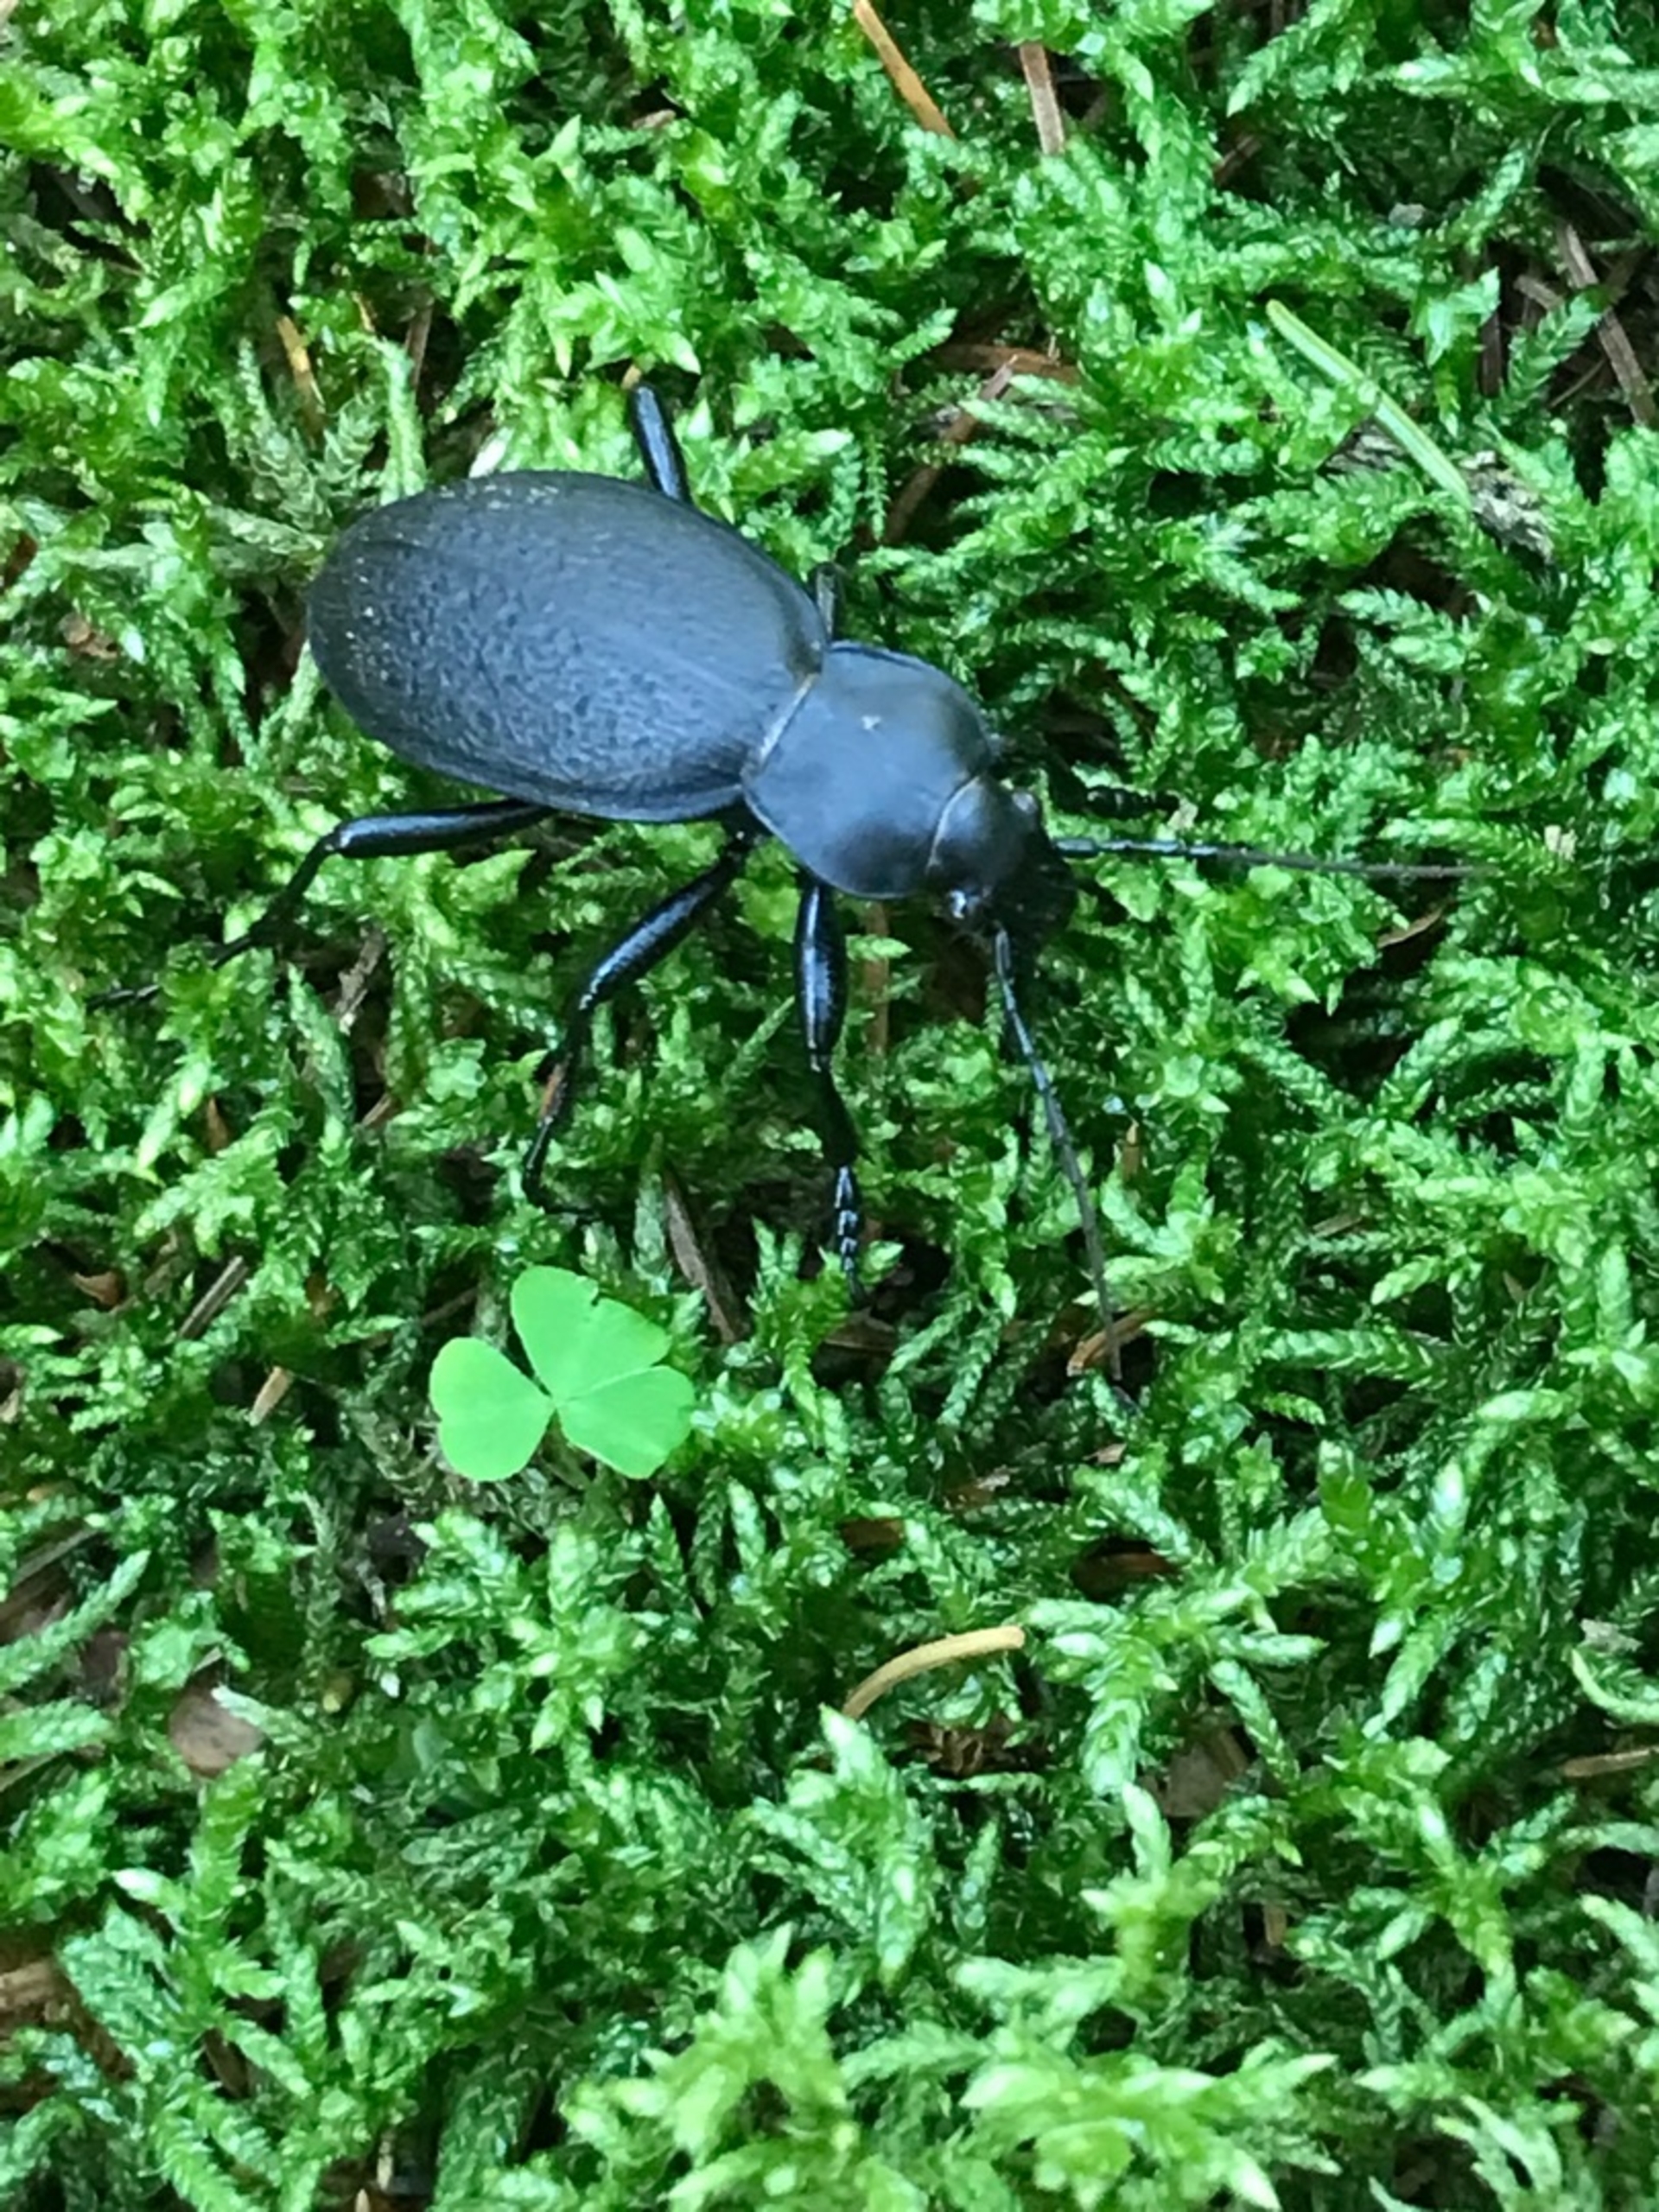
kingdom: Animalia
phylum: Arthropoda
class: Insecta
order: Coleoptera
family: Carabidae
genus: Carabus
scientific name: Carabus coriaceus
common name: Læderløber
